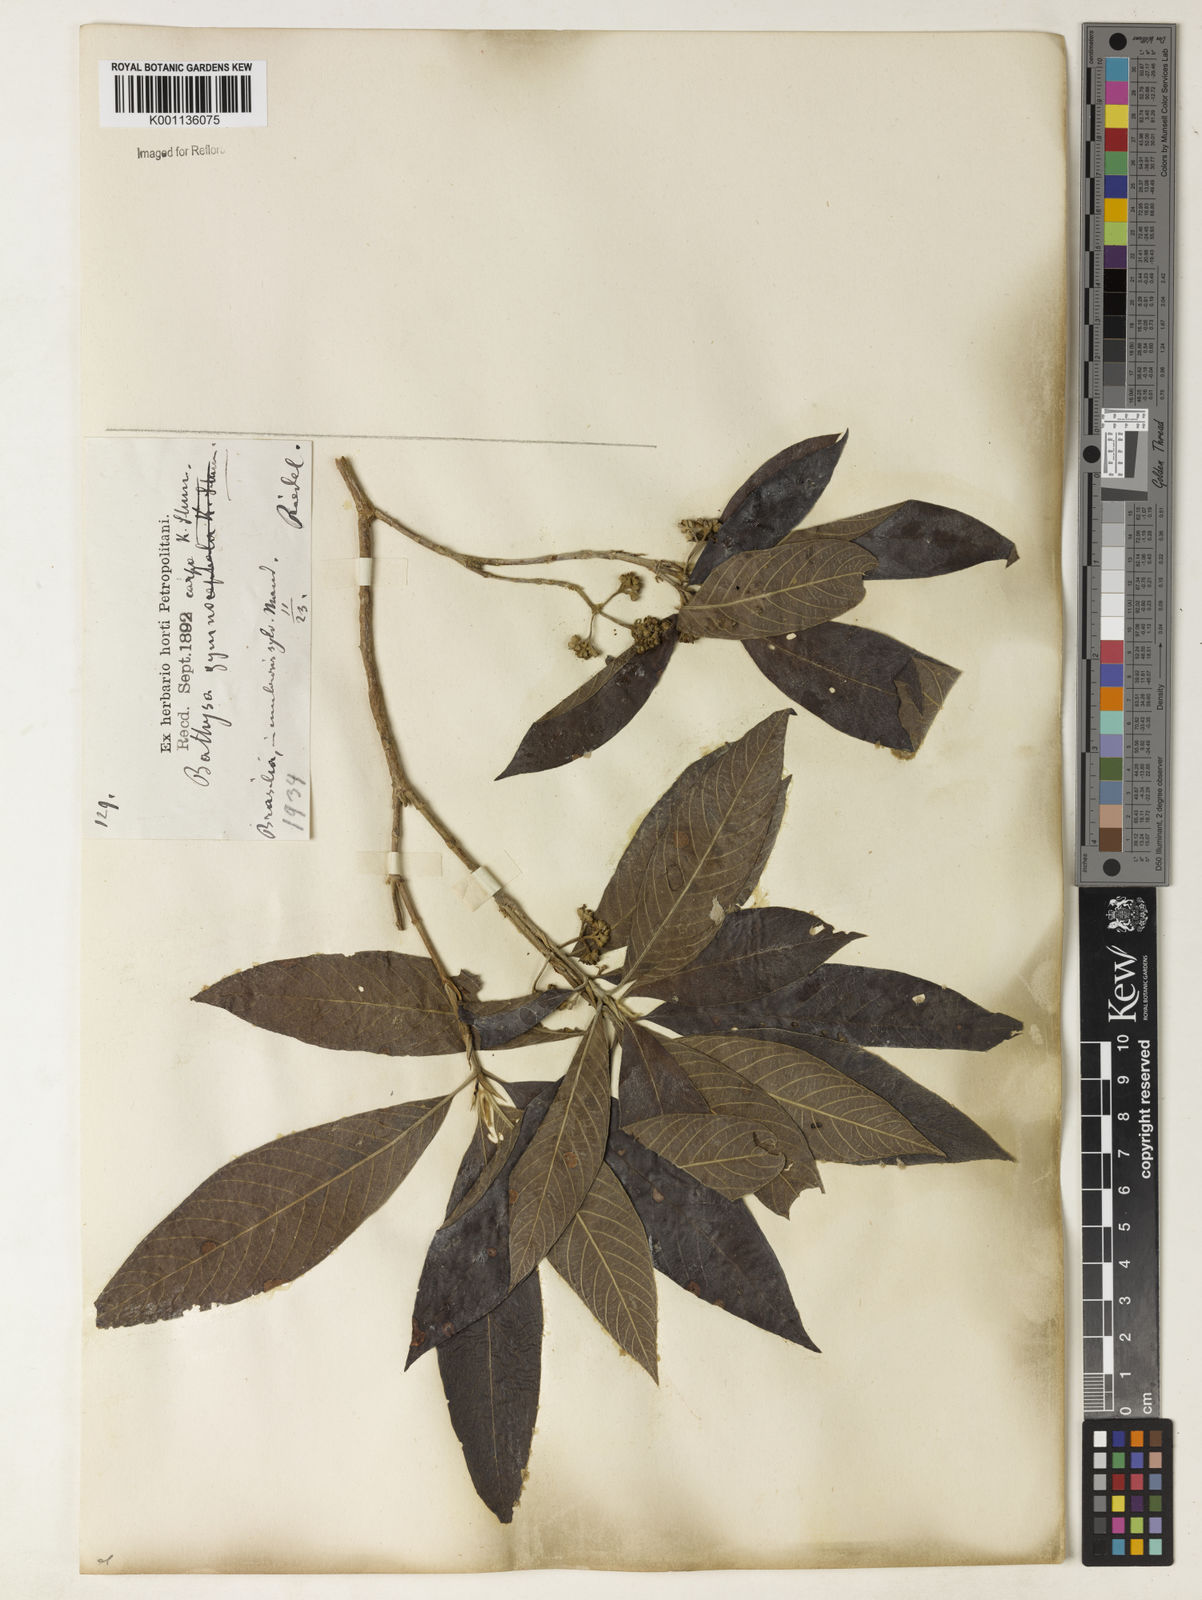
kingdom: Plantae
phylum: Tracheophyta
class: Magnoliopsida
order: Gentianales
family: Rubiaceae
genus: Bathysa
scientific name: Bathysa gymnocarpa
